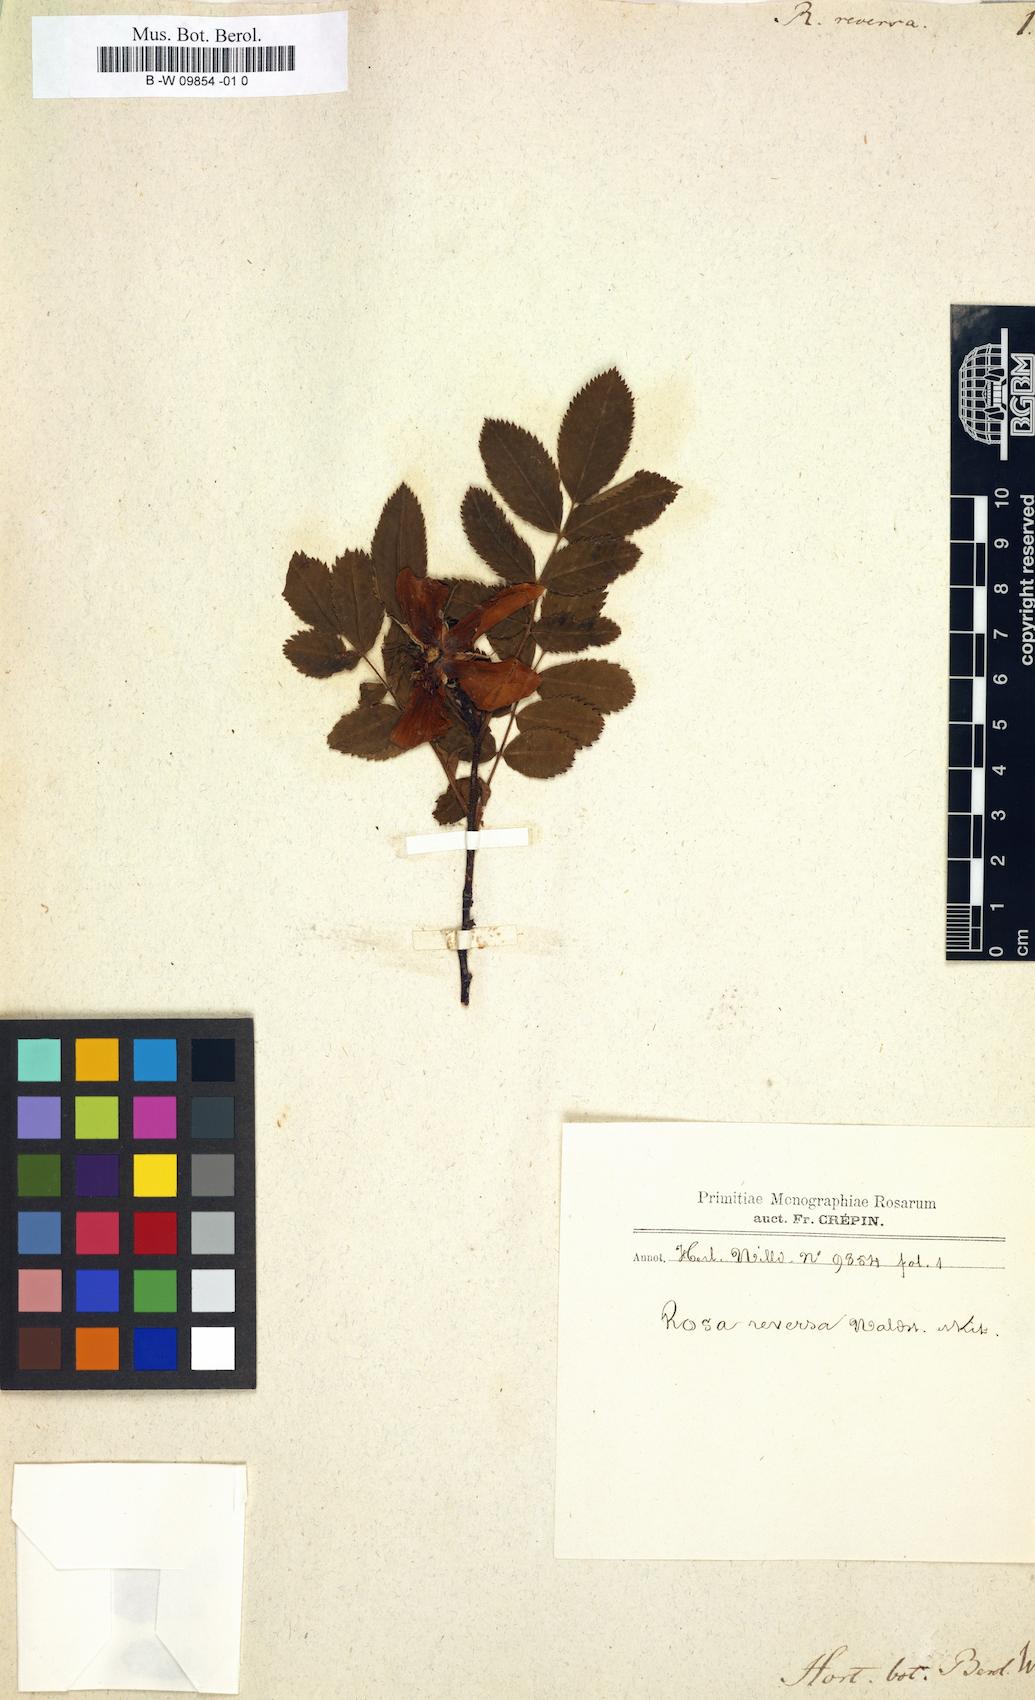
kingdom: Plantae
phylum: Tracheophyta
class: Magnoliopsida
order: Rosales
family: Rosaceae
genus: Rosa
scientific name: Rosa reversa
